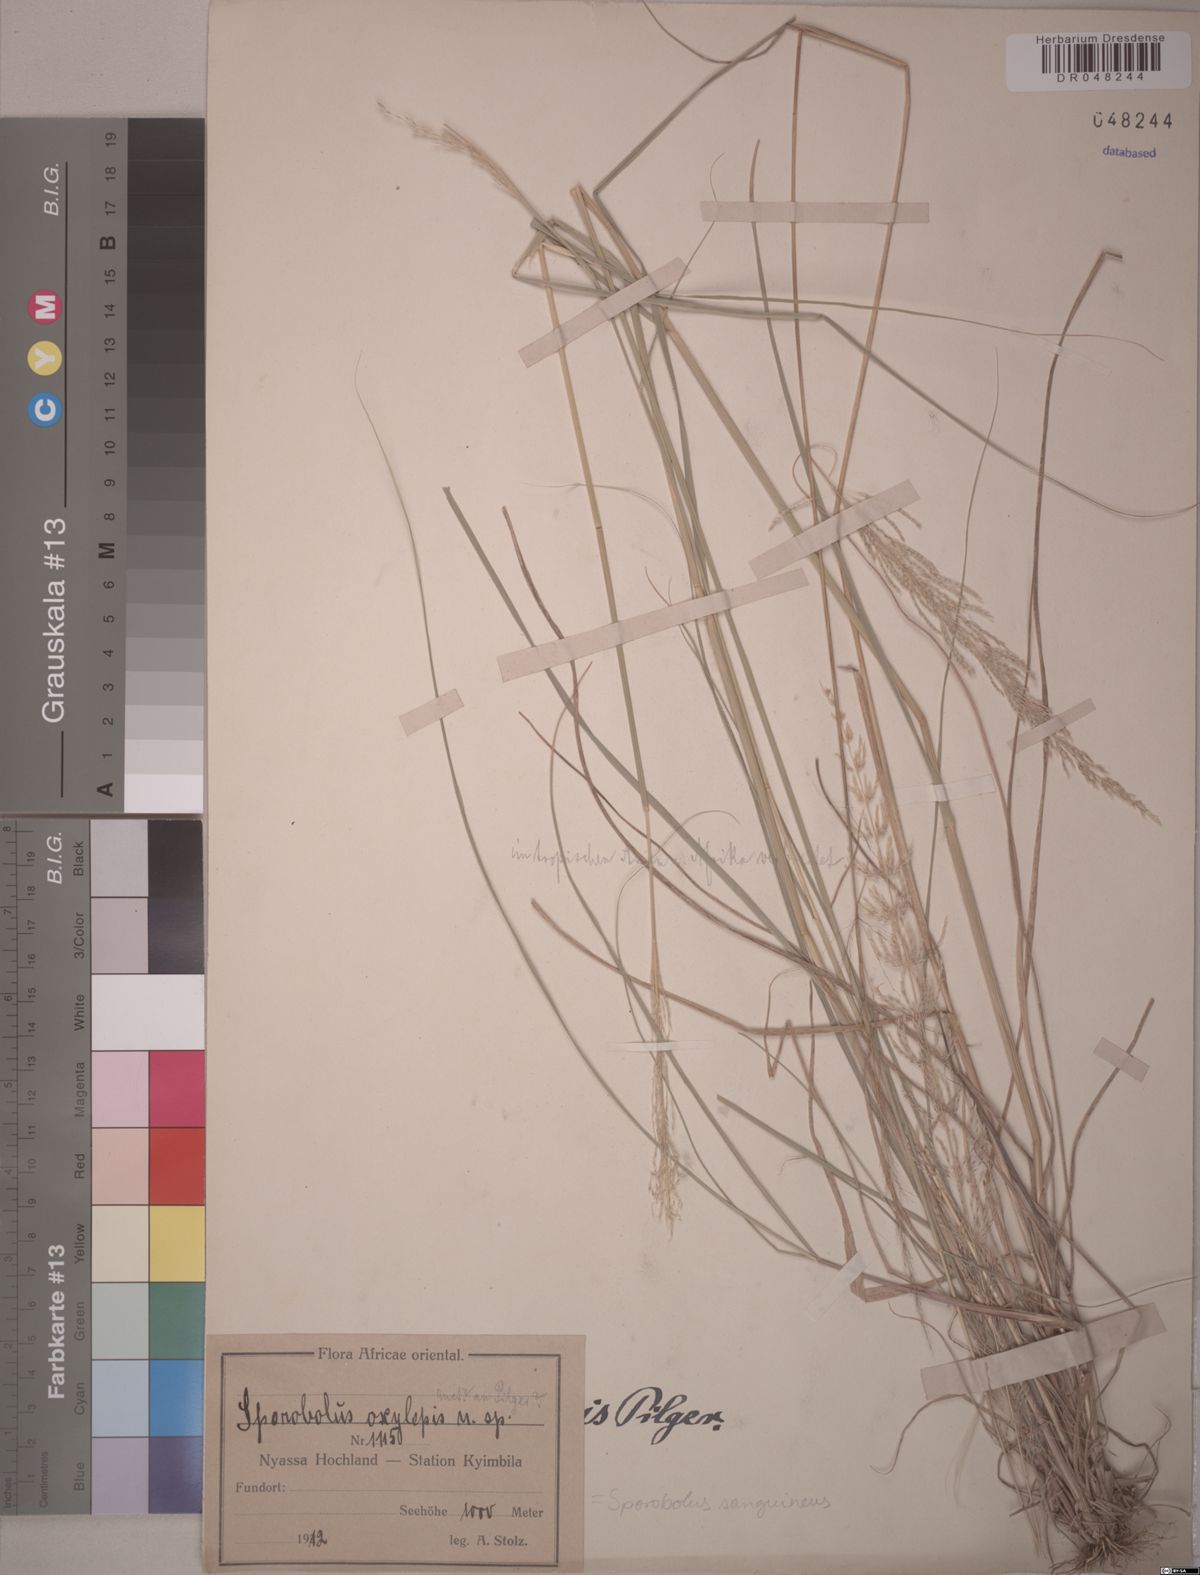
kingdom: Plantae
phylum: Tracheophyta
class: Liliopsida
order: Poales
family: Poaceae
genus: Sporobolus
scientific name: Sporobolus sanguineus
